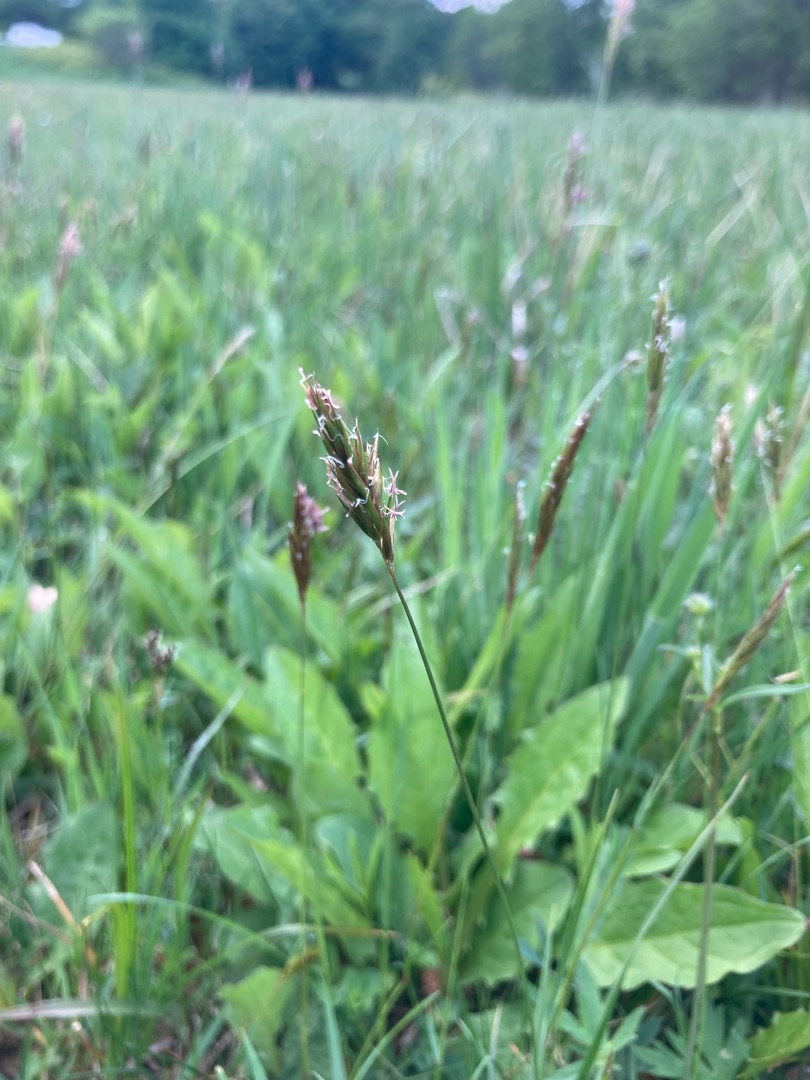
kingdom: Plantae
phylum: Tracheophyta
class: Liliopsida
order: Poales
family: Poaceae
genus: Anthoxanthum
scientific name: Anthoxanthum odoratum
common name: Vellugtende gulaks
